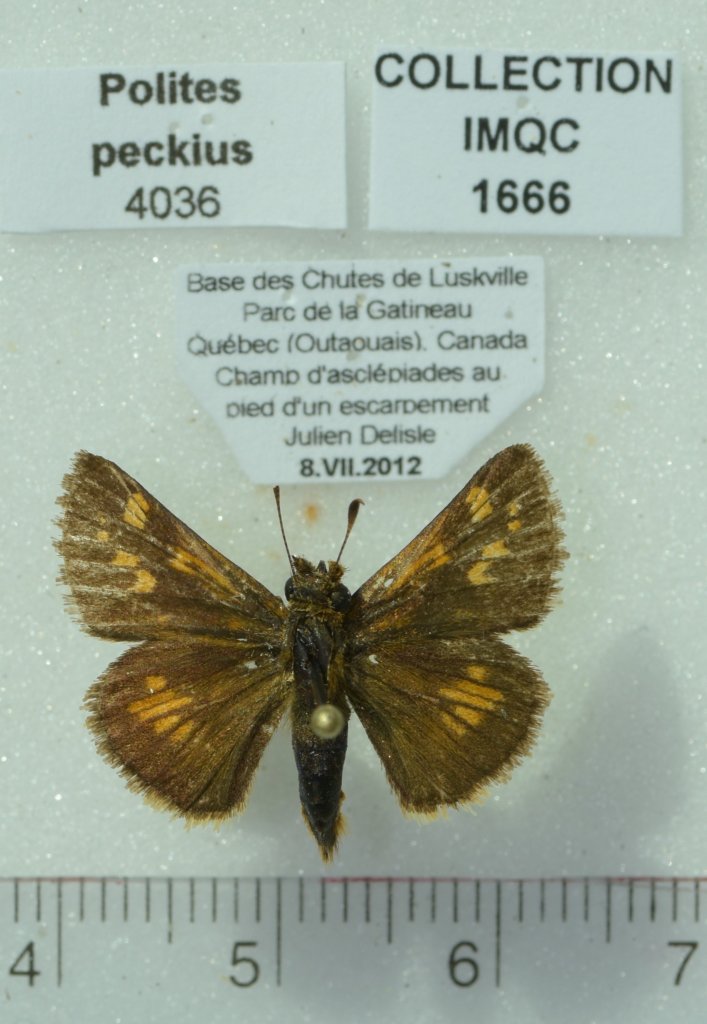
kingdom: Animalia
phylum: Arthropoda
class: Insecta
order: Lepidoptera
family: Hesperiidae
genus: Polites
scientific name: Polites coras
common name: Peck's Skipper
